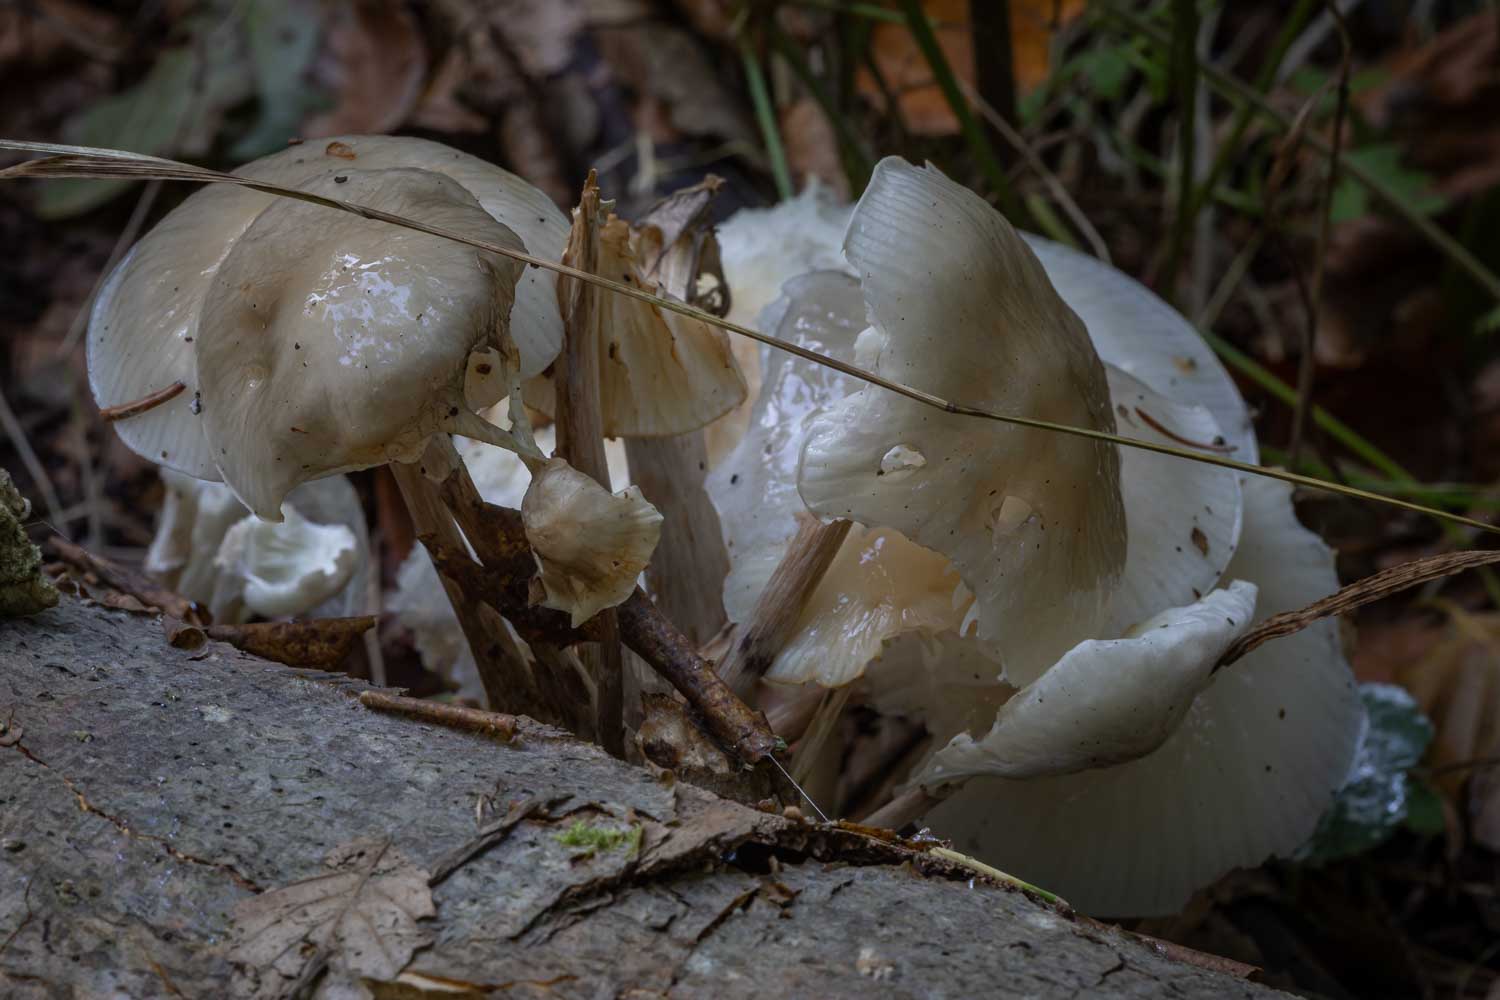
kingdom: Fungi
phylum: Basidiomycota
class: Agaricomycetes
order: Agaricales
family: Physalacriaceae
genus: Mucidula
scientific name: Mucidula mucida
